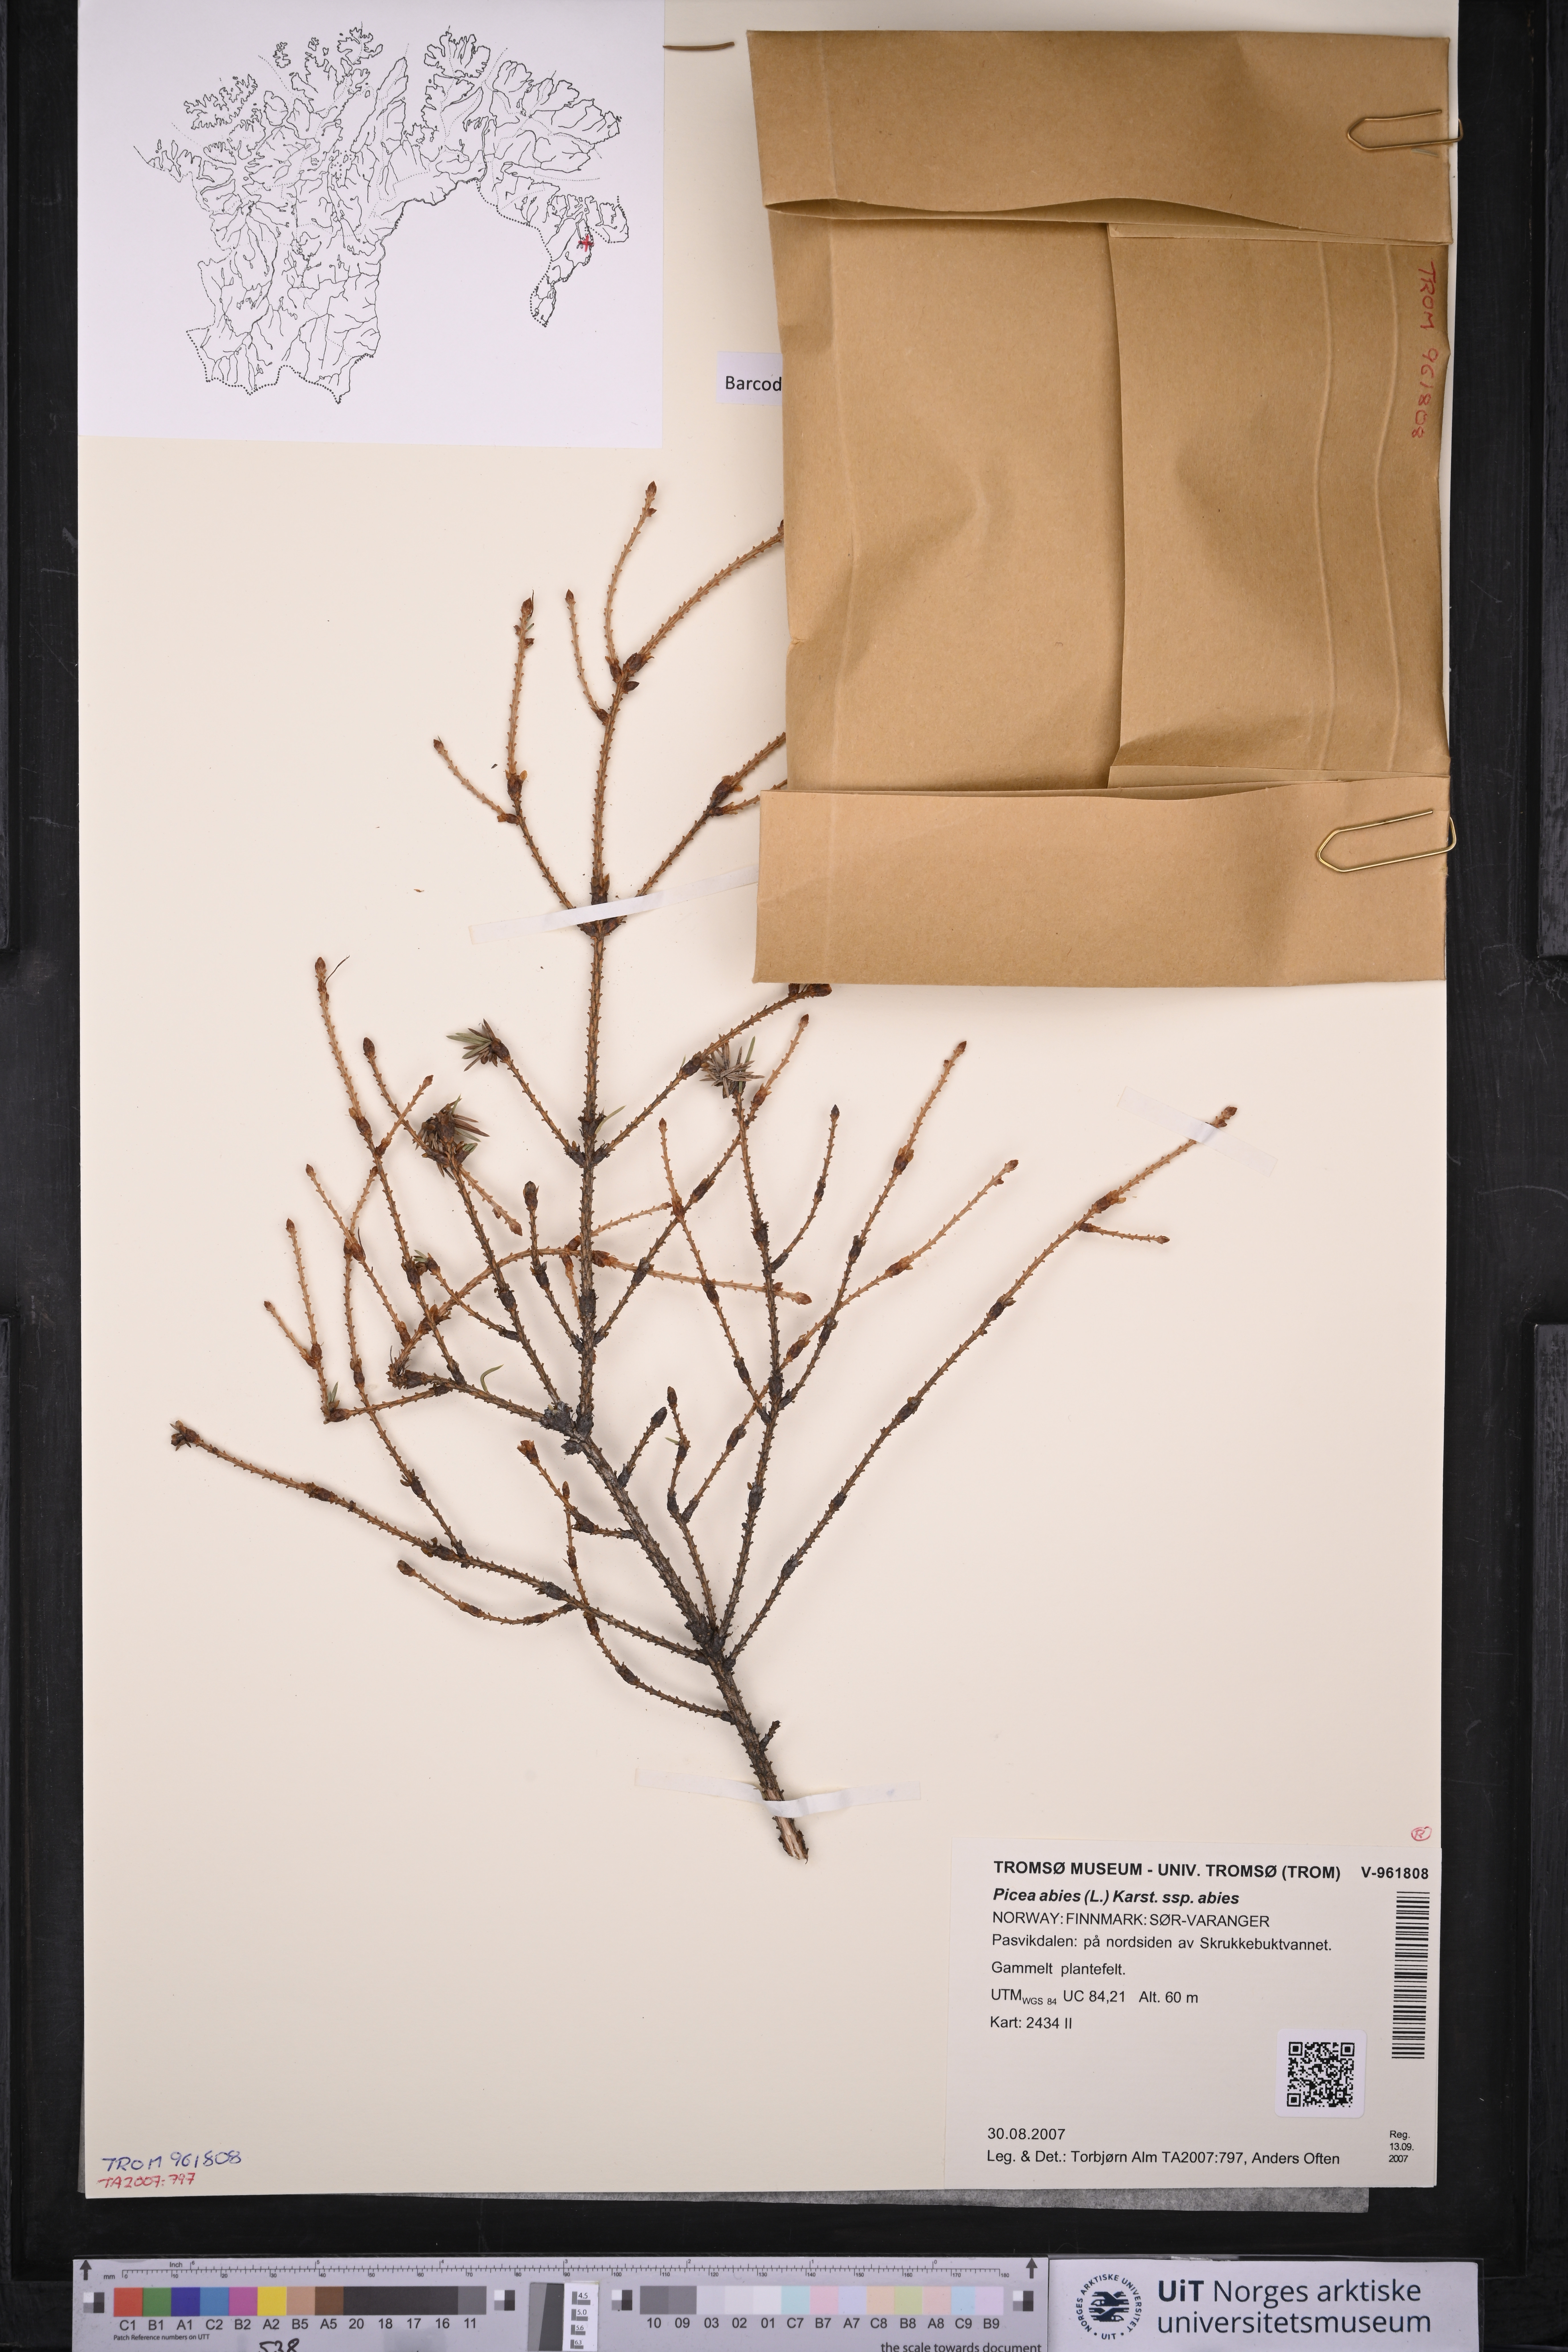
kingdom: Plantae
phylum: Tracheophyta
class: Pinopsida
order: Pinales
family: Pinaceae
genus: Picea
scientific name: Picea abies
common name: Norway spruce
